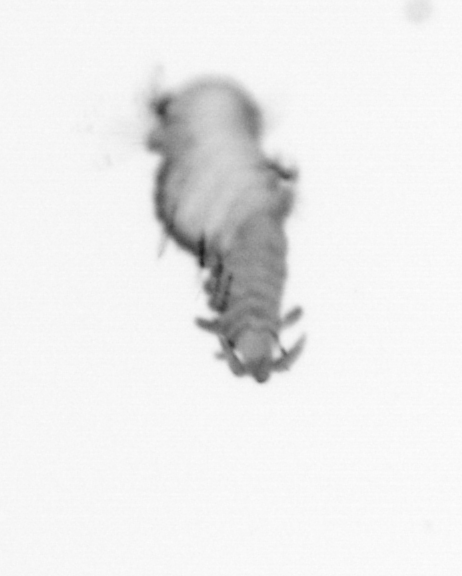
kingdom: Animalia
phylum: Annelida
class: Polychaeta
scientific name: Polychaeta
